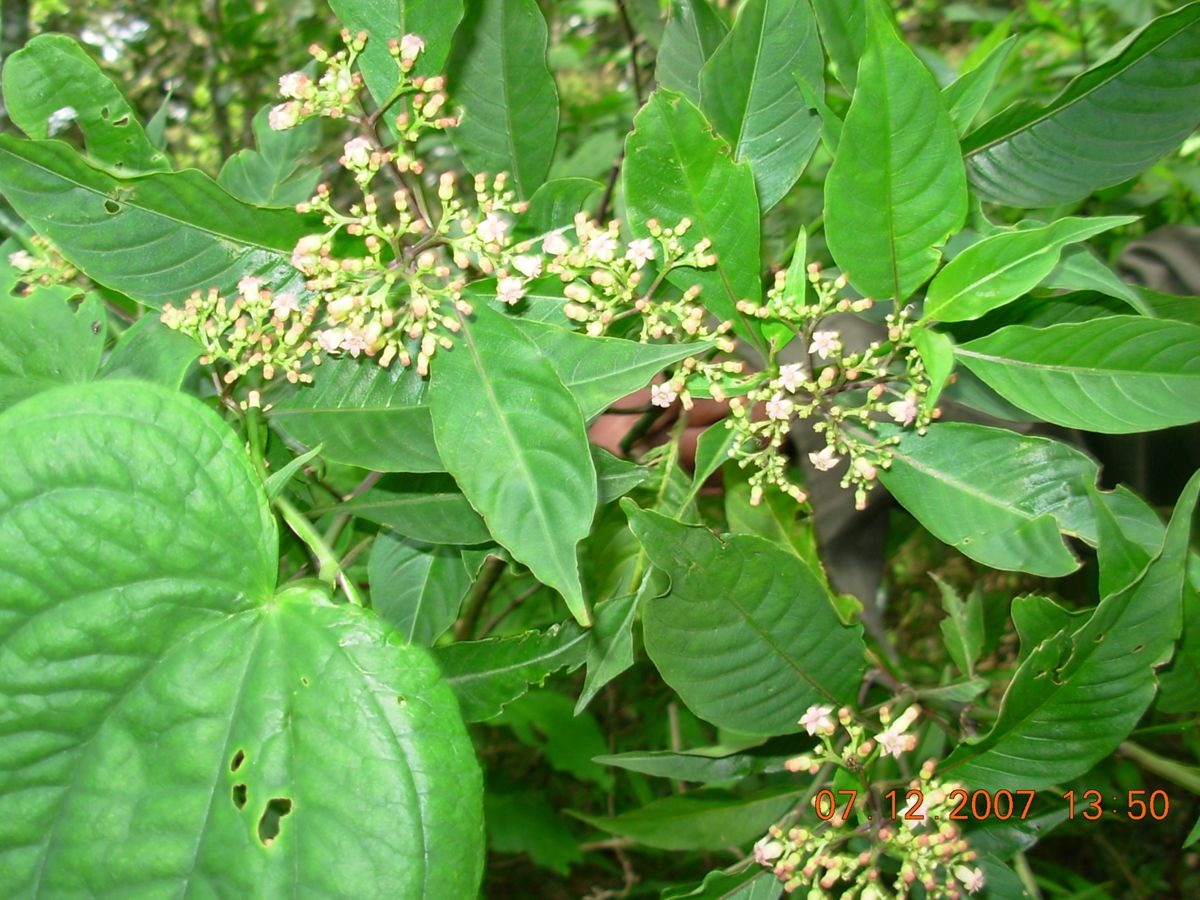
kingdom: Plantae
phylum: Tracheophyta
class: Magnoliopsida
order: Gentianales
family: Rubiaceae
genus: Palicourea
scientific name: Palicourea pubescens
